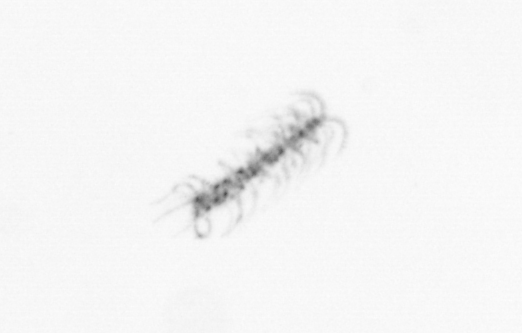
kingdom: Chromista
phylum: Ochrophyta
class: Bacillariophyceae
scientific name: Bacillariophyceae
